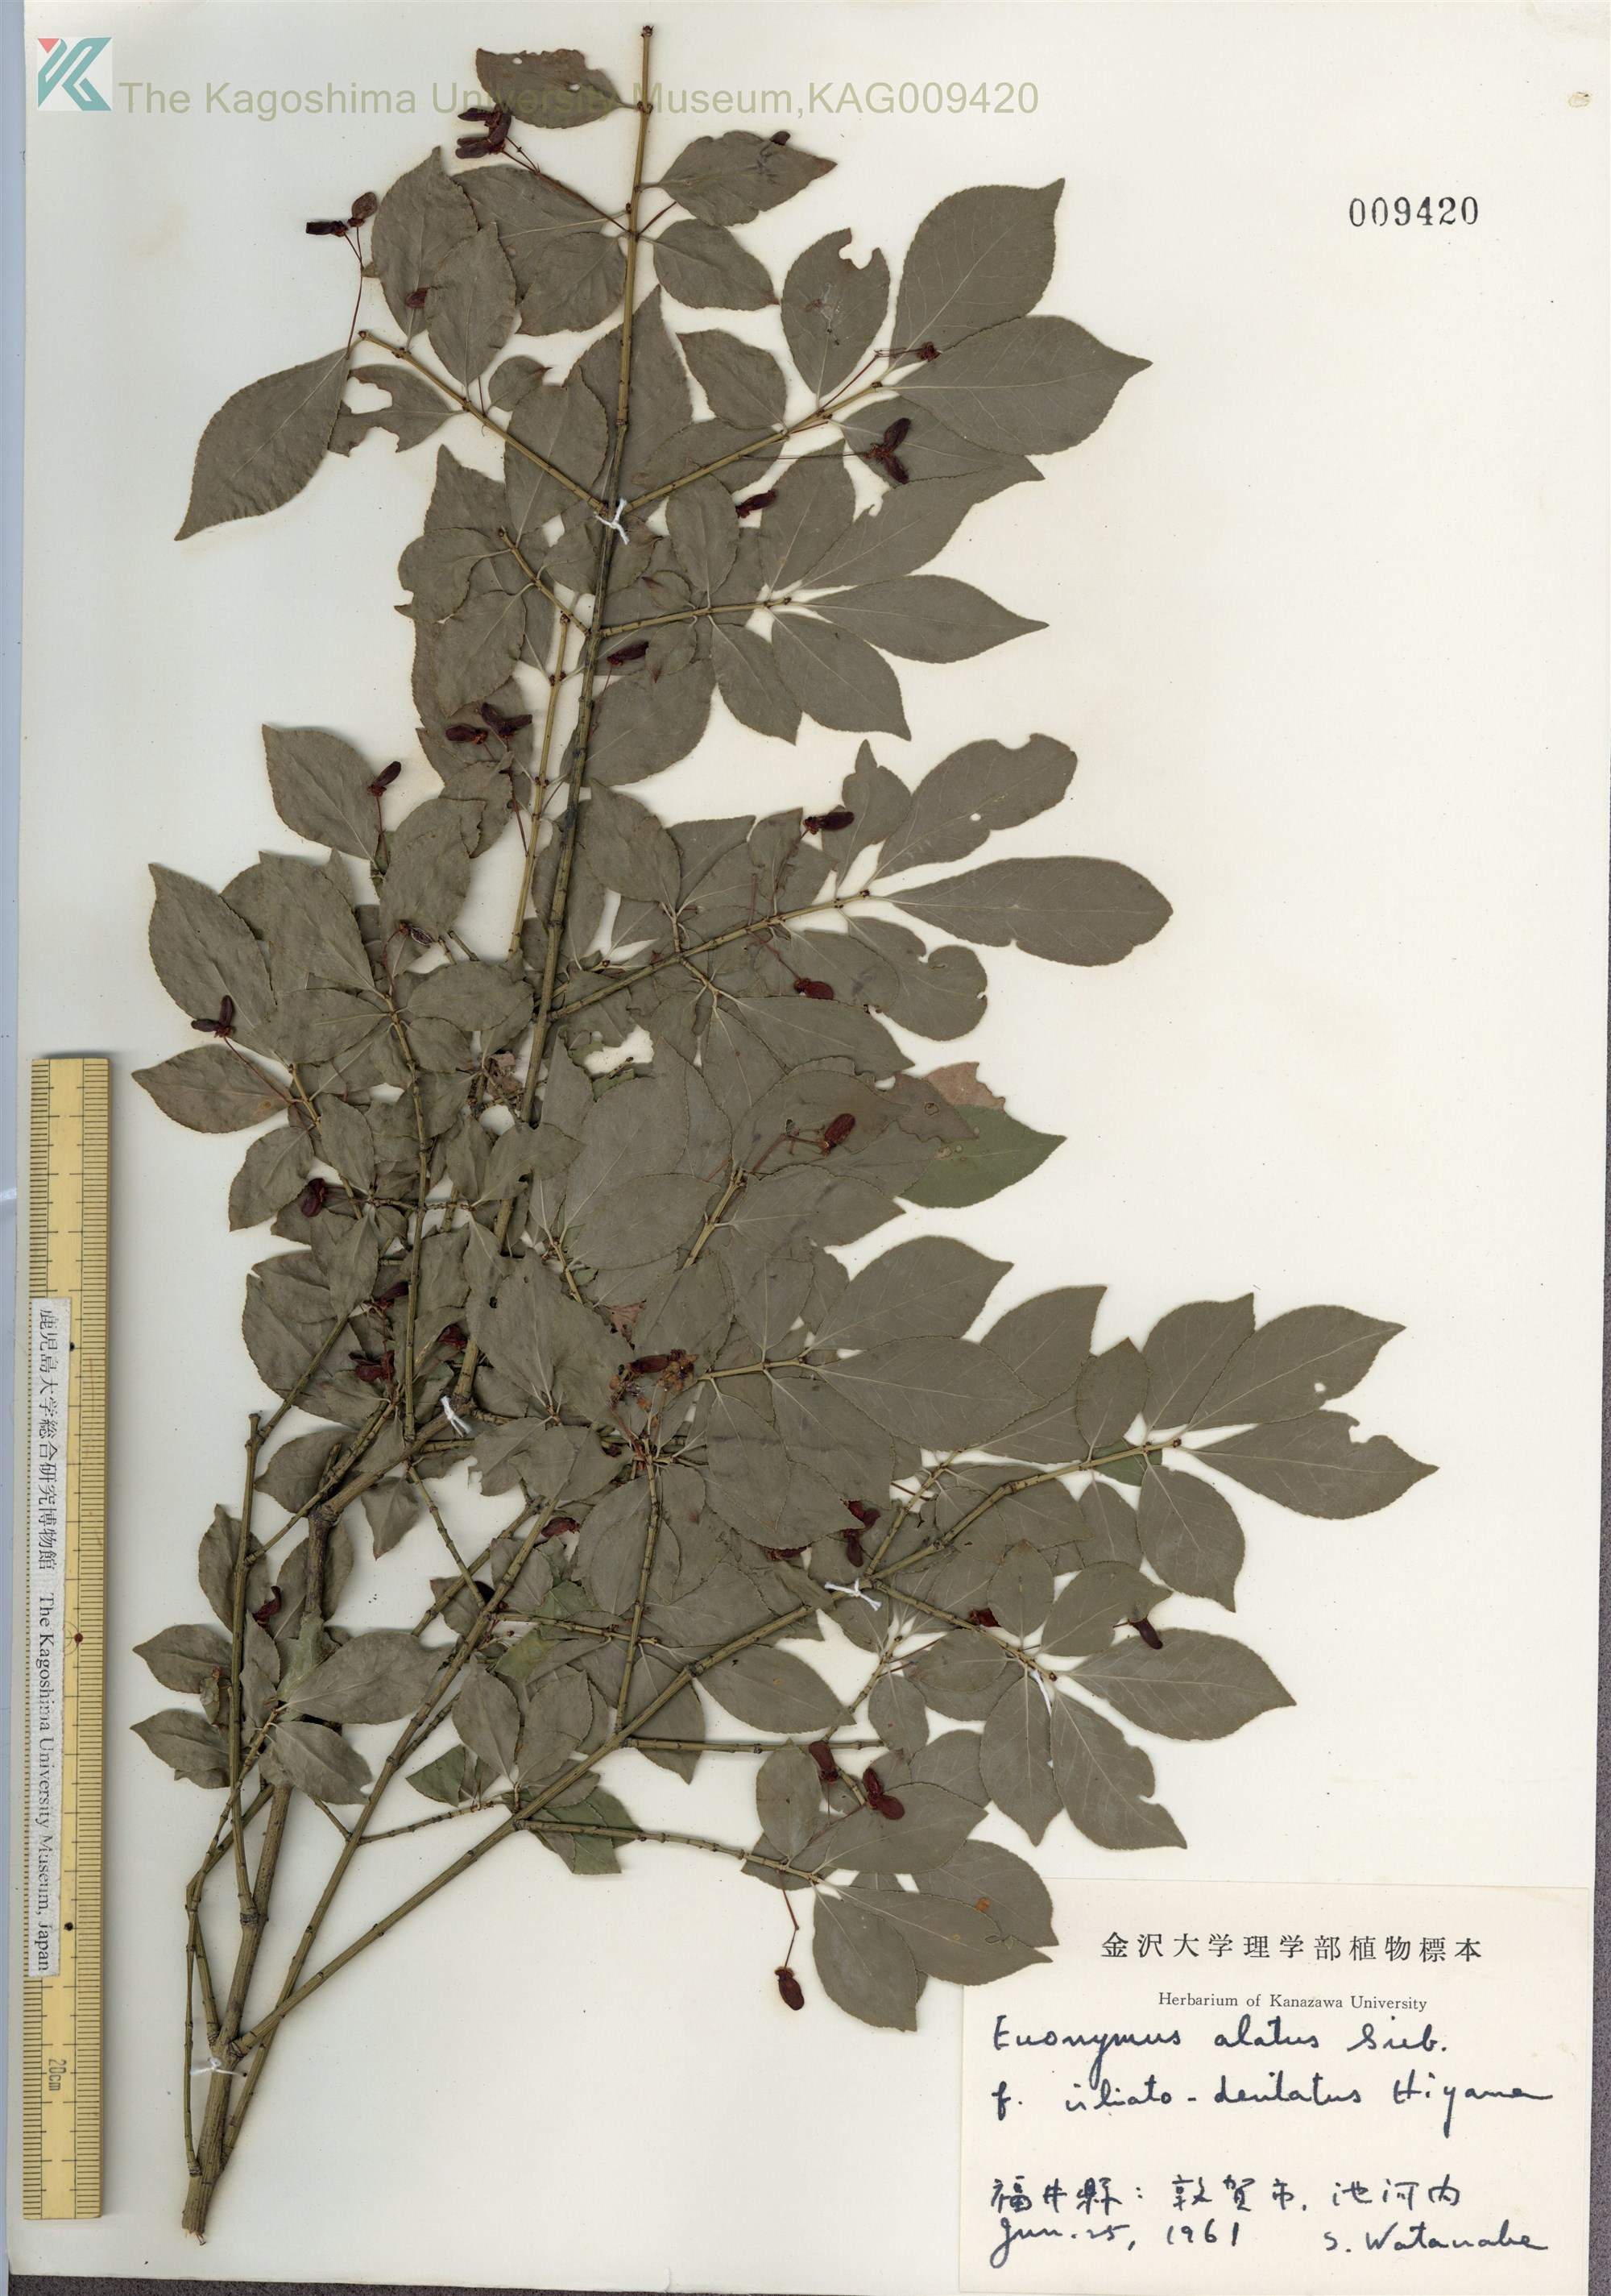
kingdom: Plantae
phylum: Tracheophyta
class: Magnoliopsida
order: Celastrales
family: Celastraceae
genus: Euonymus
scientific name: Euonymus alatus
